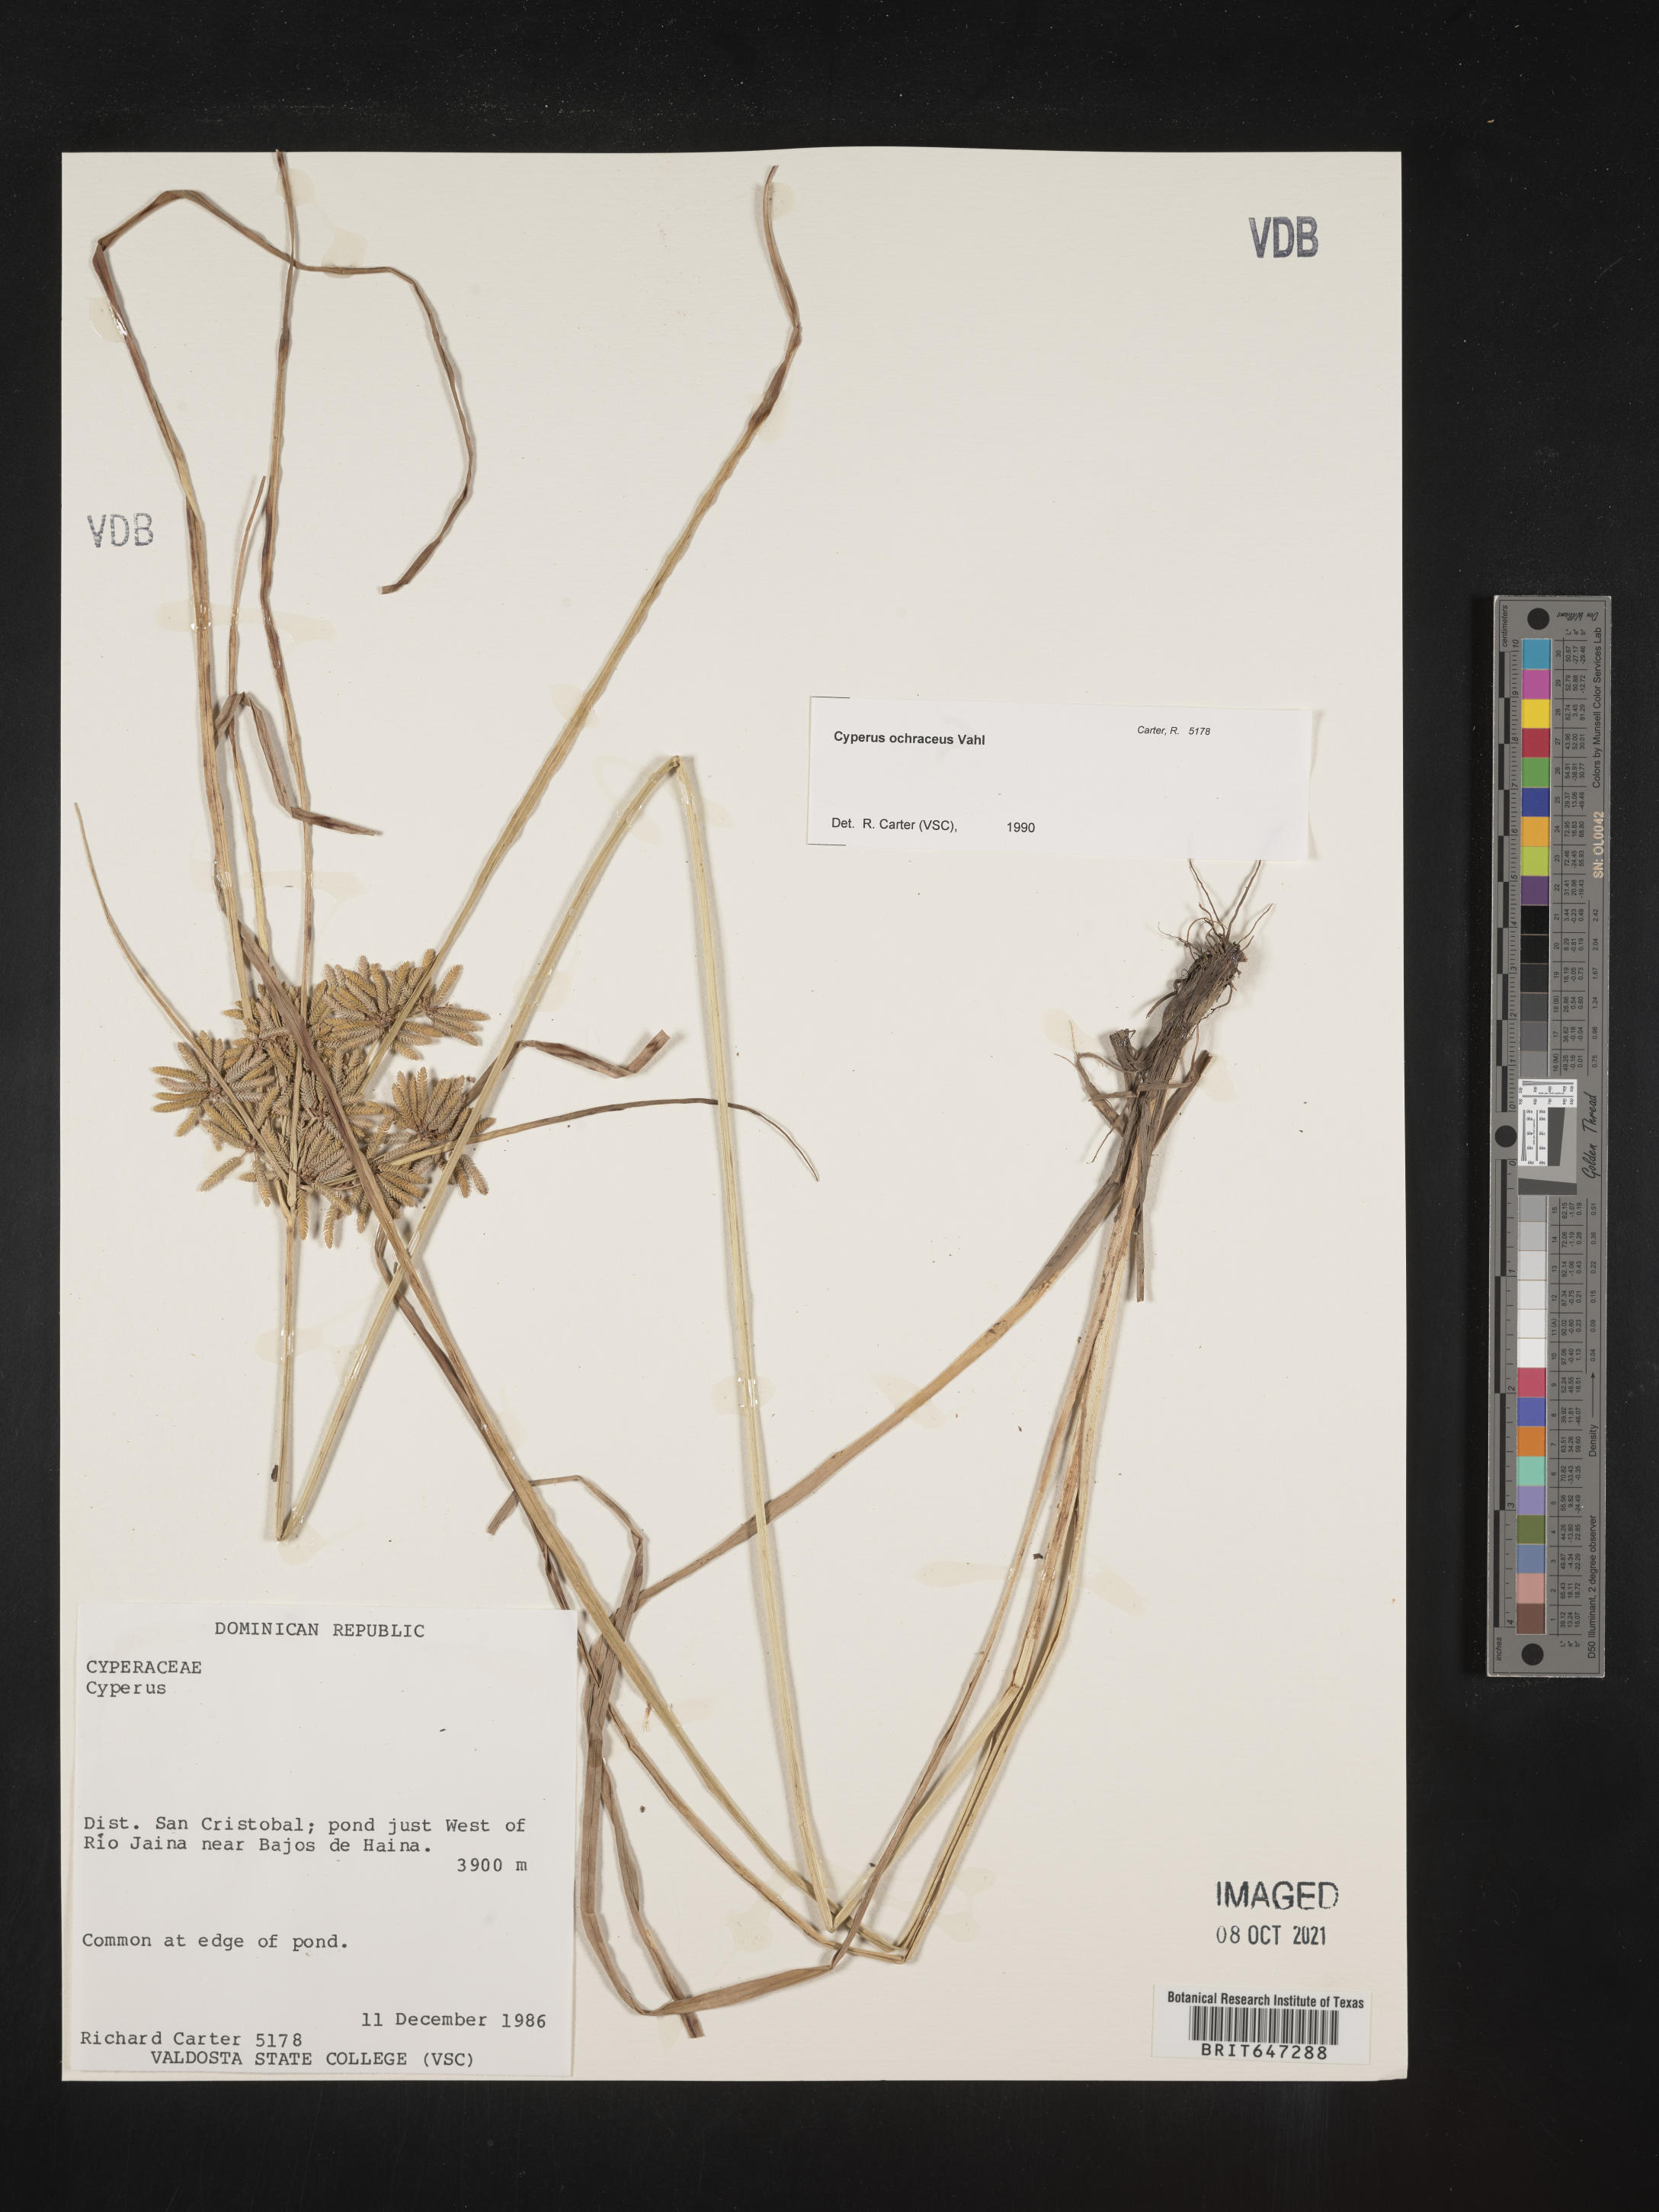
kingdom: Plantae
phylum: Tracheophyta
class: Liliopsida
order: Poales
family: Cyperaceae
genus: Cyperus
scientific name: Cyperus ochraceus
